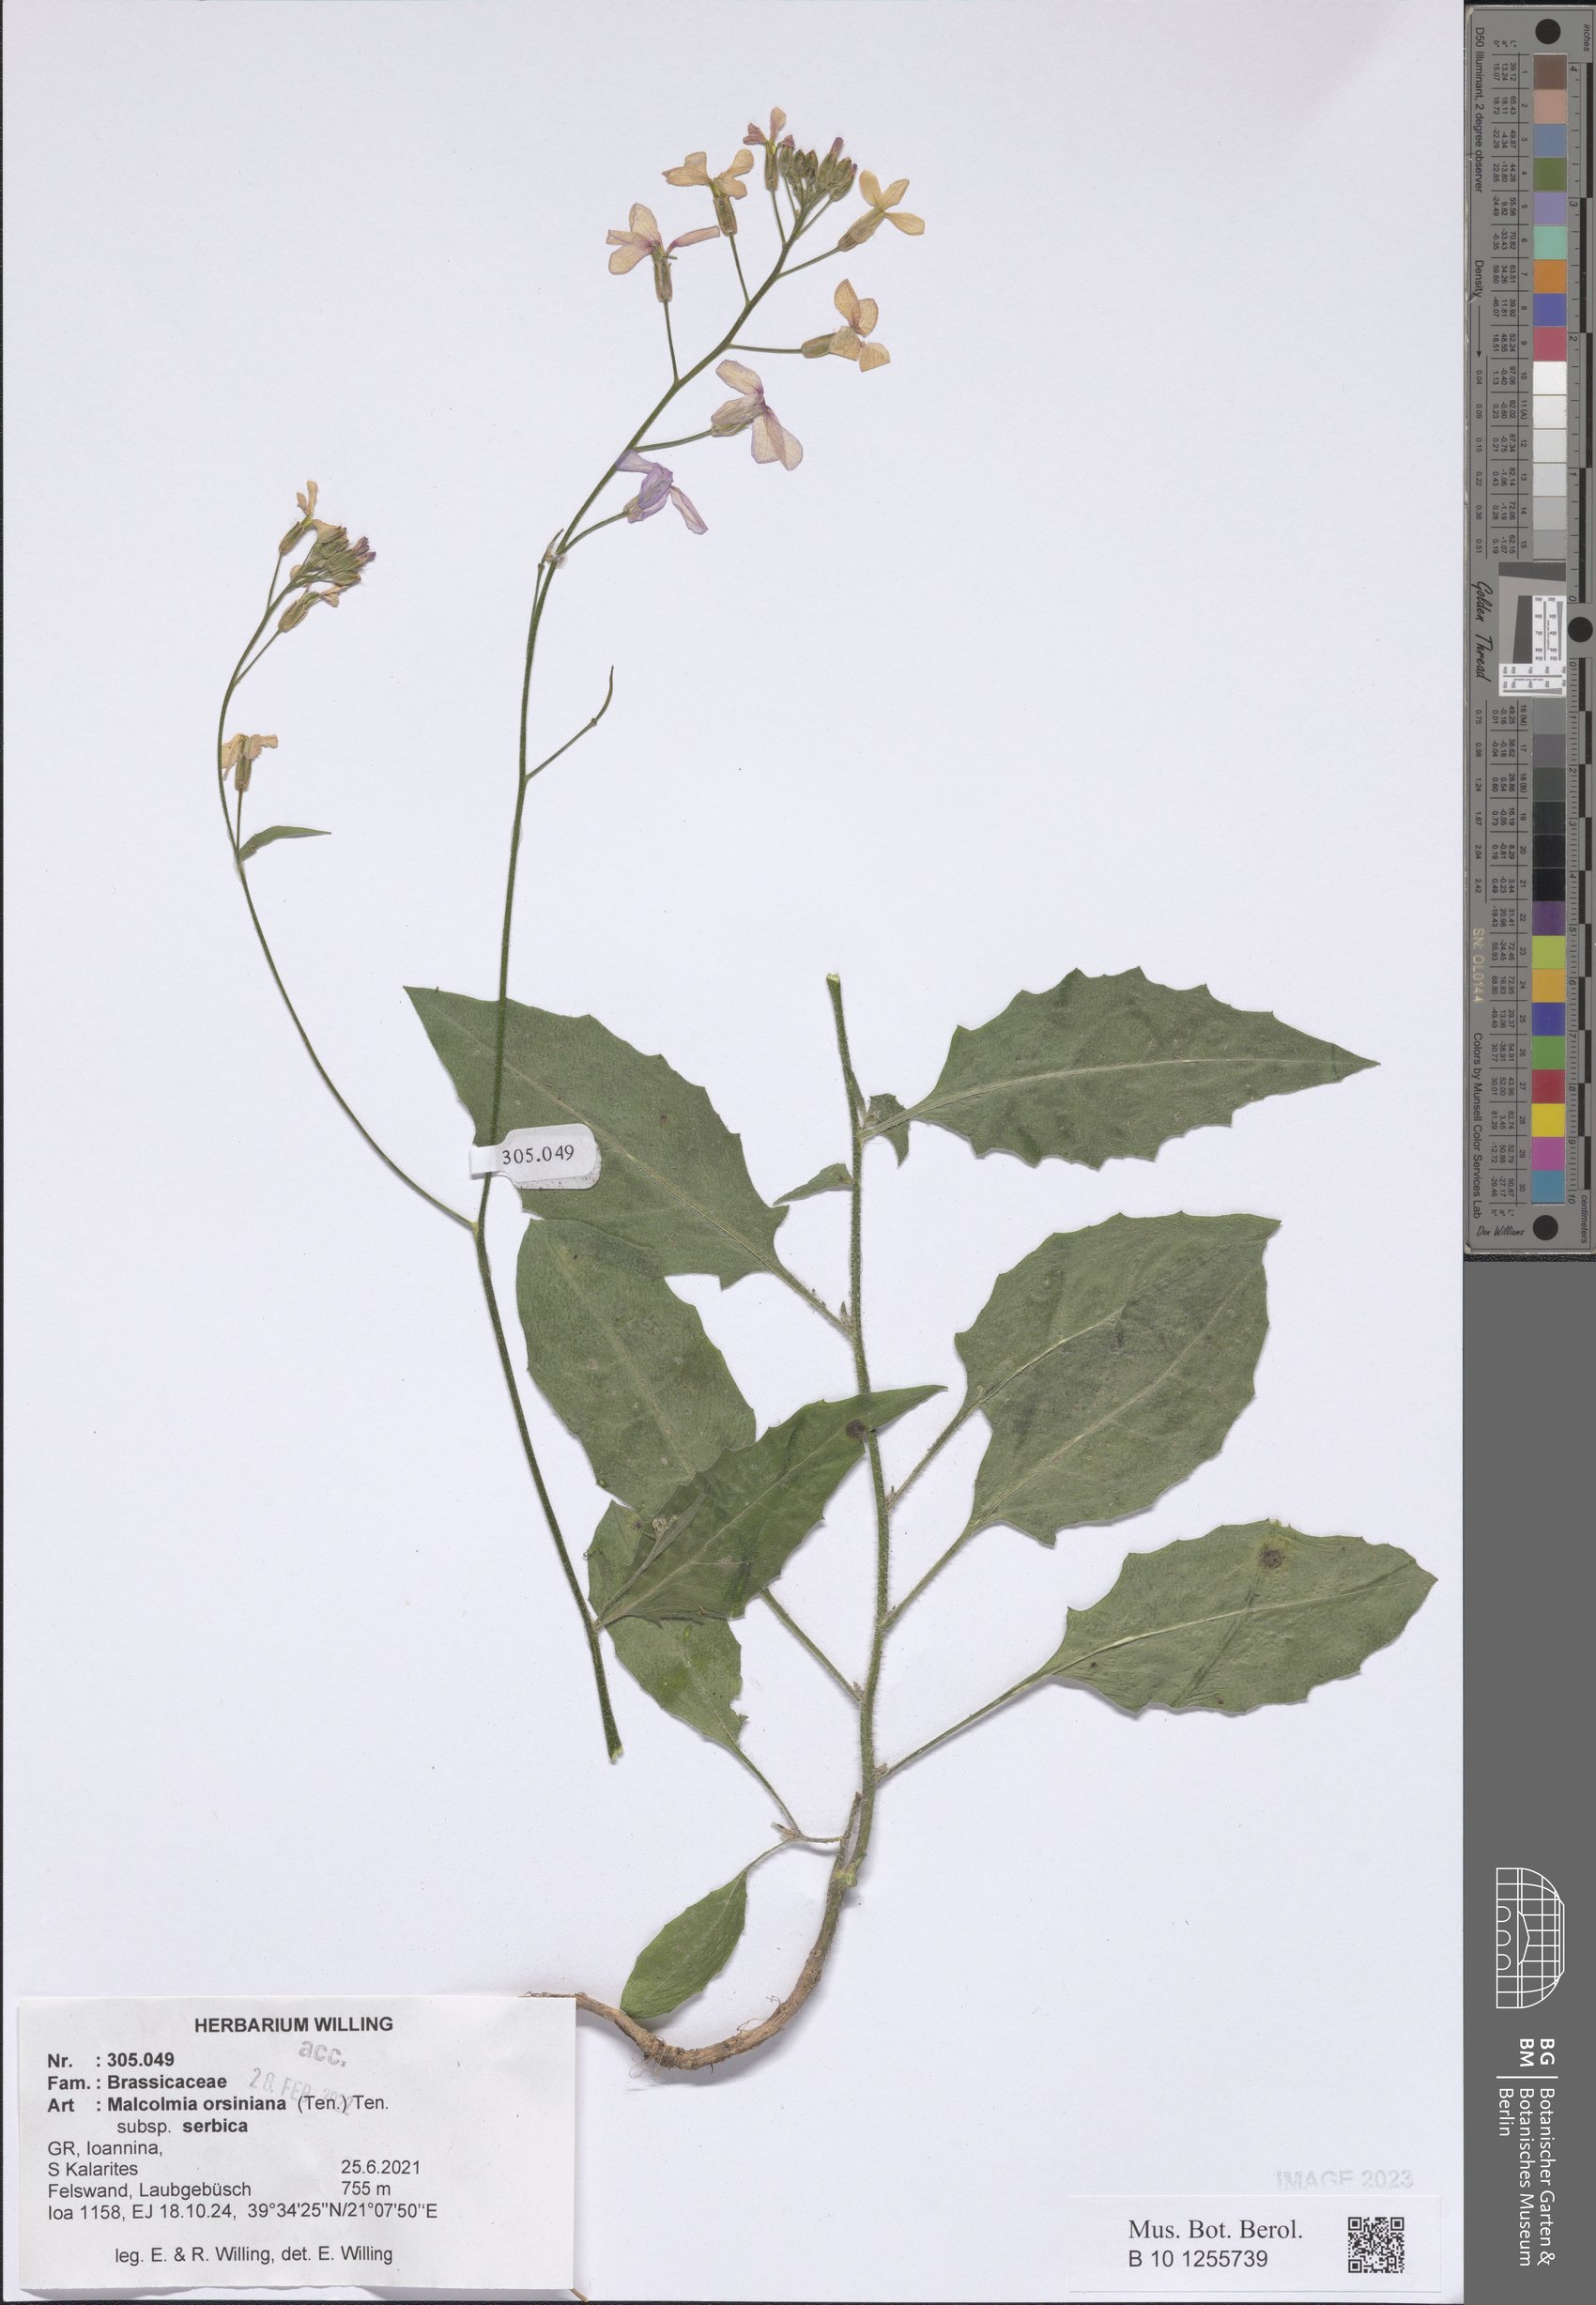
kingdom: Plantae
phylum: Tracheophyta
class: Magnoliopsida
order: Brassicales
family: Brassicaceae
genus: Malcolmia
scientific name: Malcolmia orsiniana
